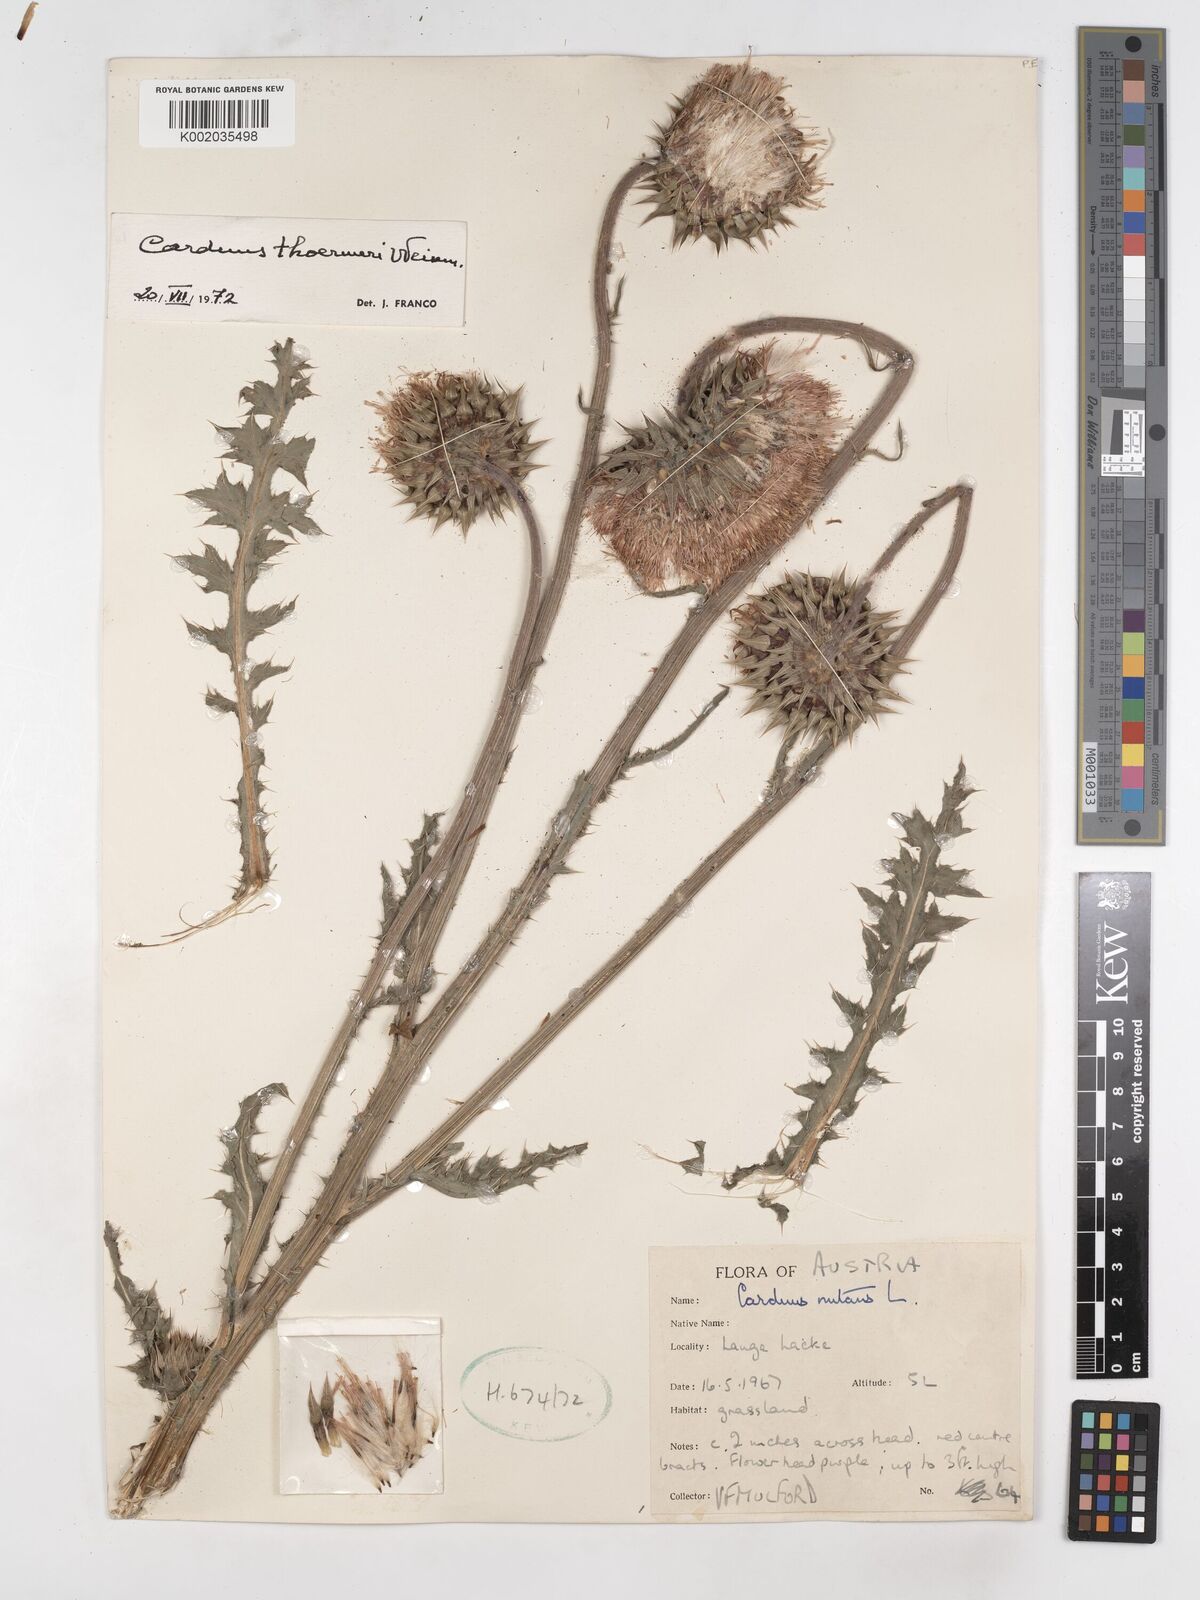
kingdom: Plantae
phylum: Tracheophyta
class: Magnoliopsida
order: Asterales
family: Asteraceae
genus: Carduus
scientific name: Carduus nutans
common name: Musk thistle
